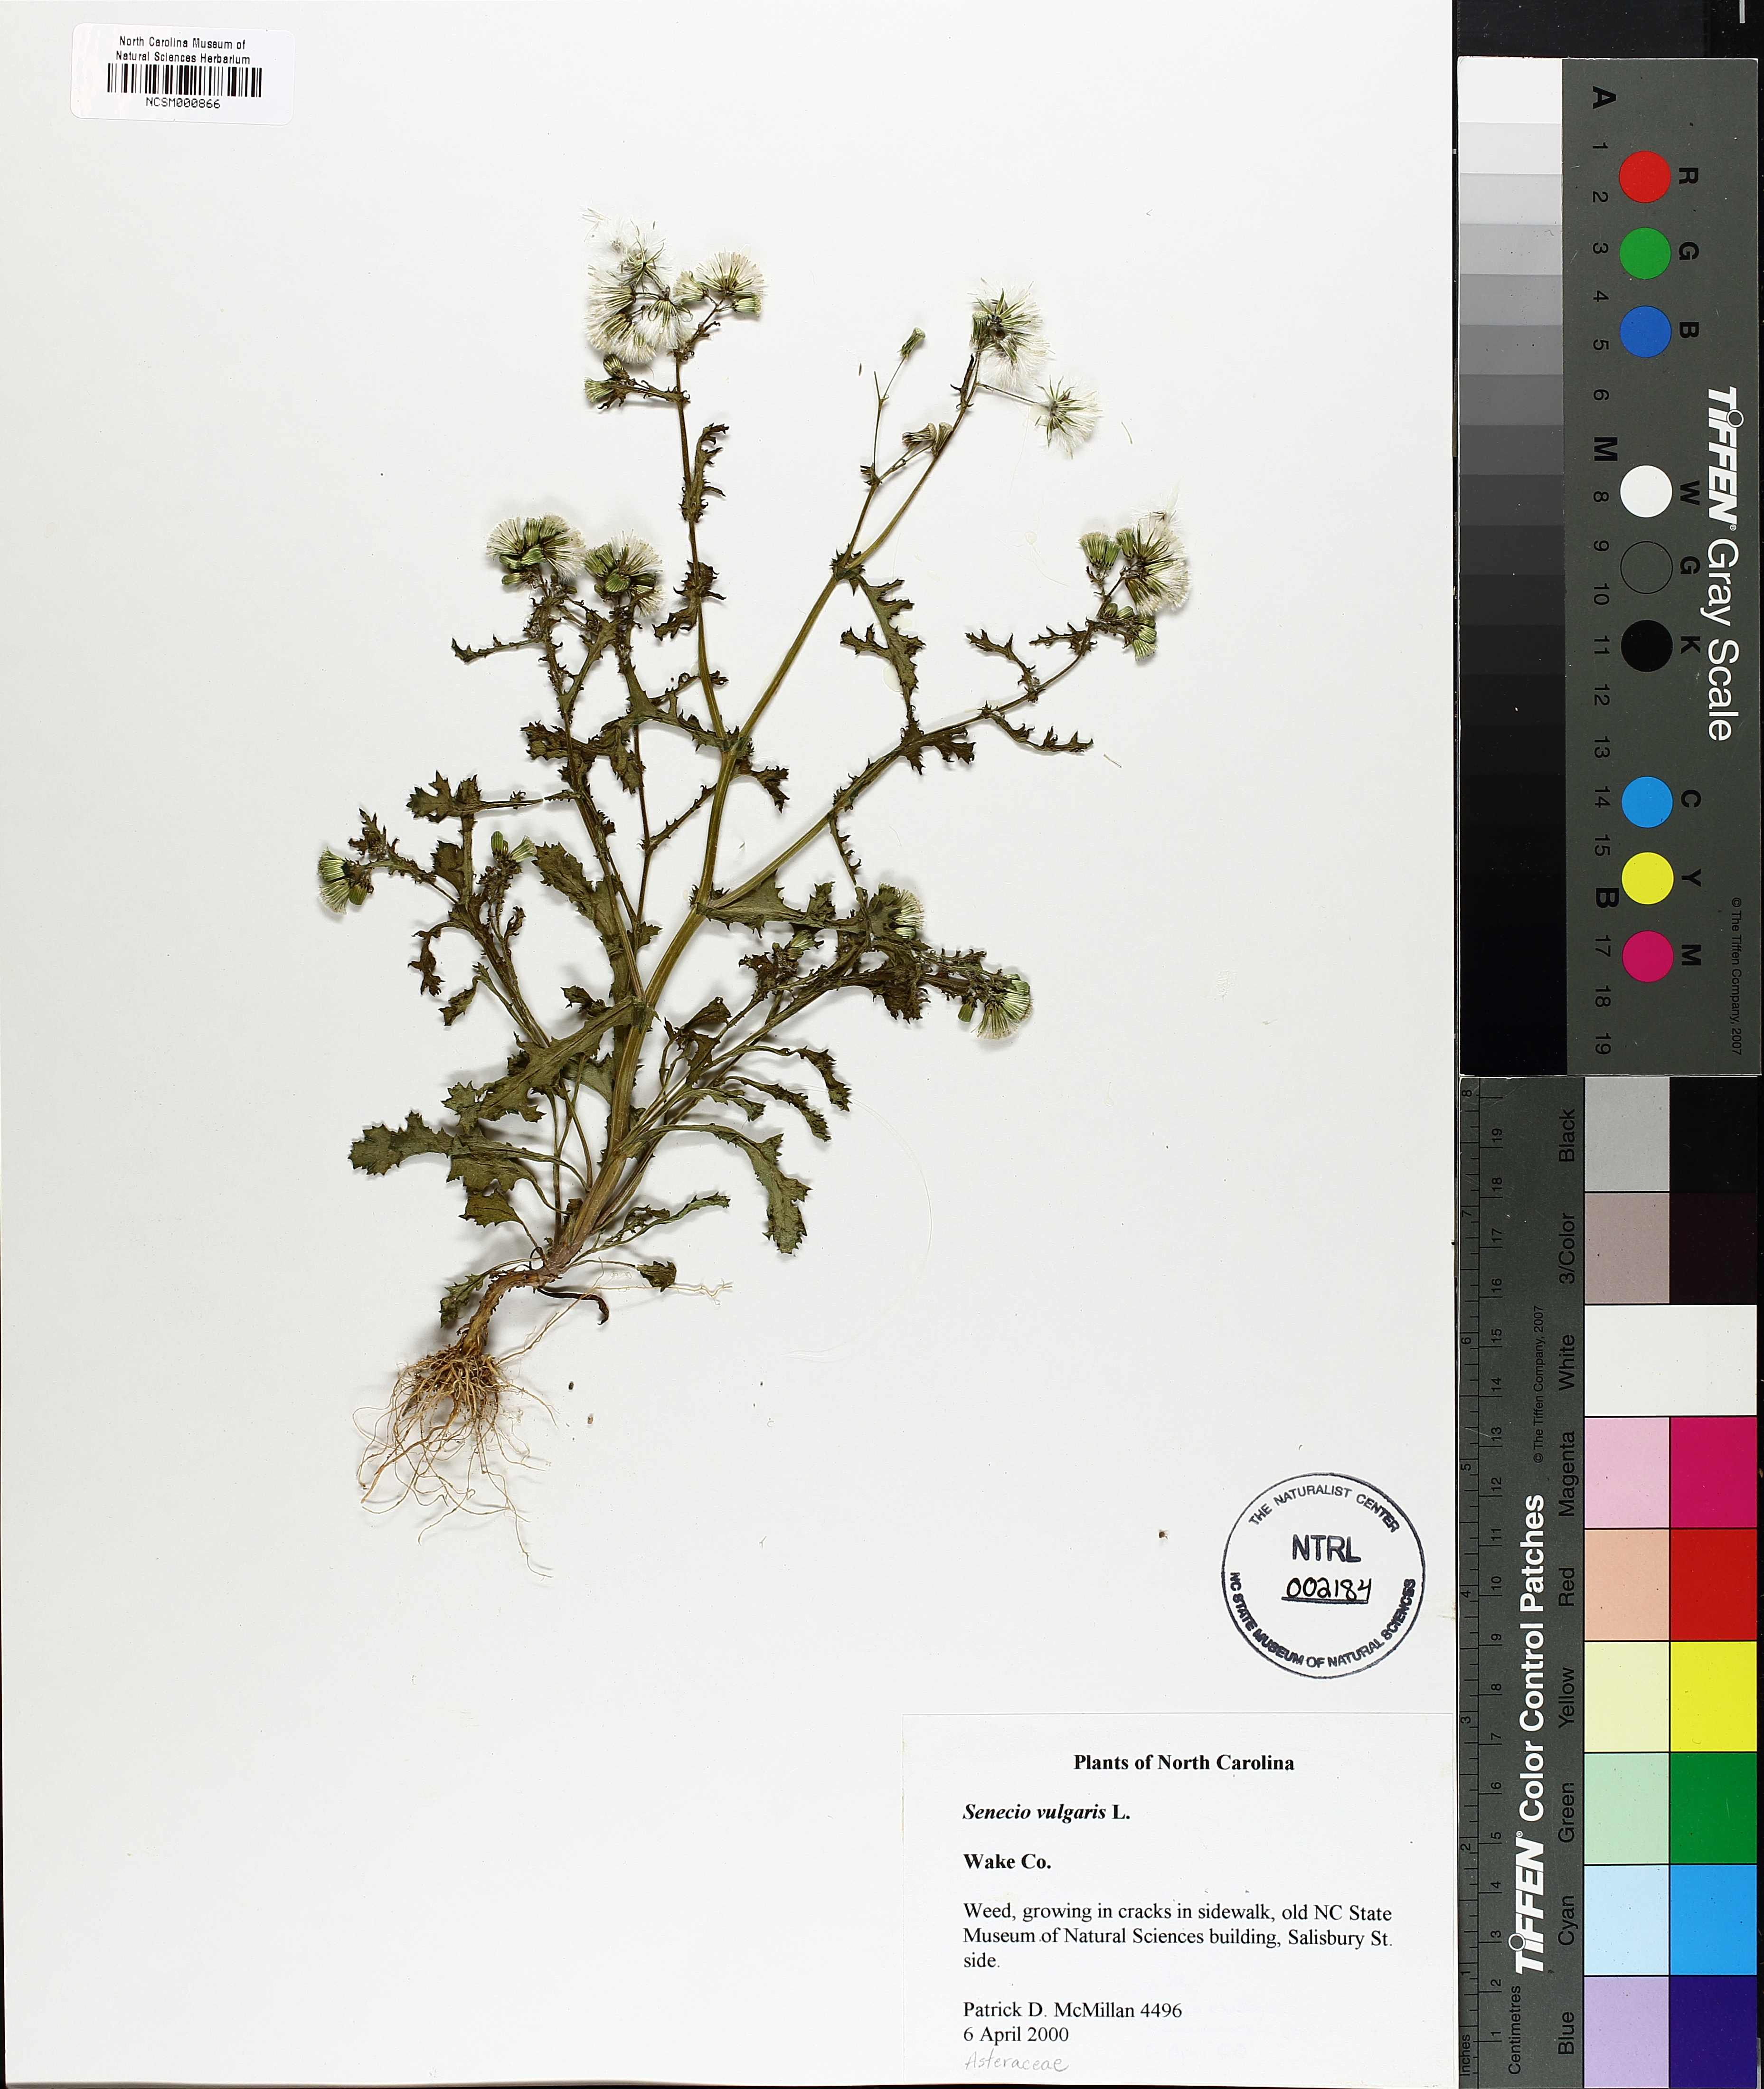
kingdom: Plantae
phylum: Tracheophyta
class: Magnoliopsida
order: Asterales
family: Asteraceae
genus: Senecio
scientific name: Senecio vulgaris
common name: Old-man-in-the-spring
